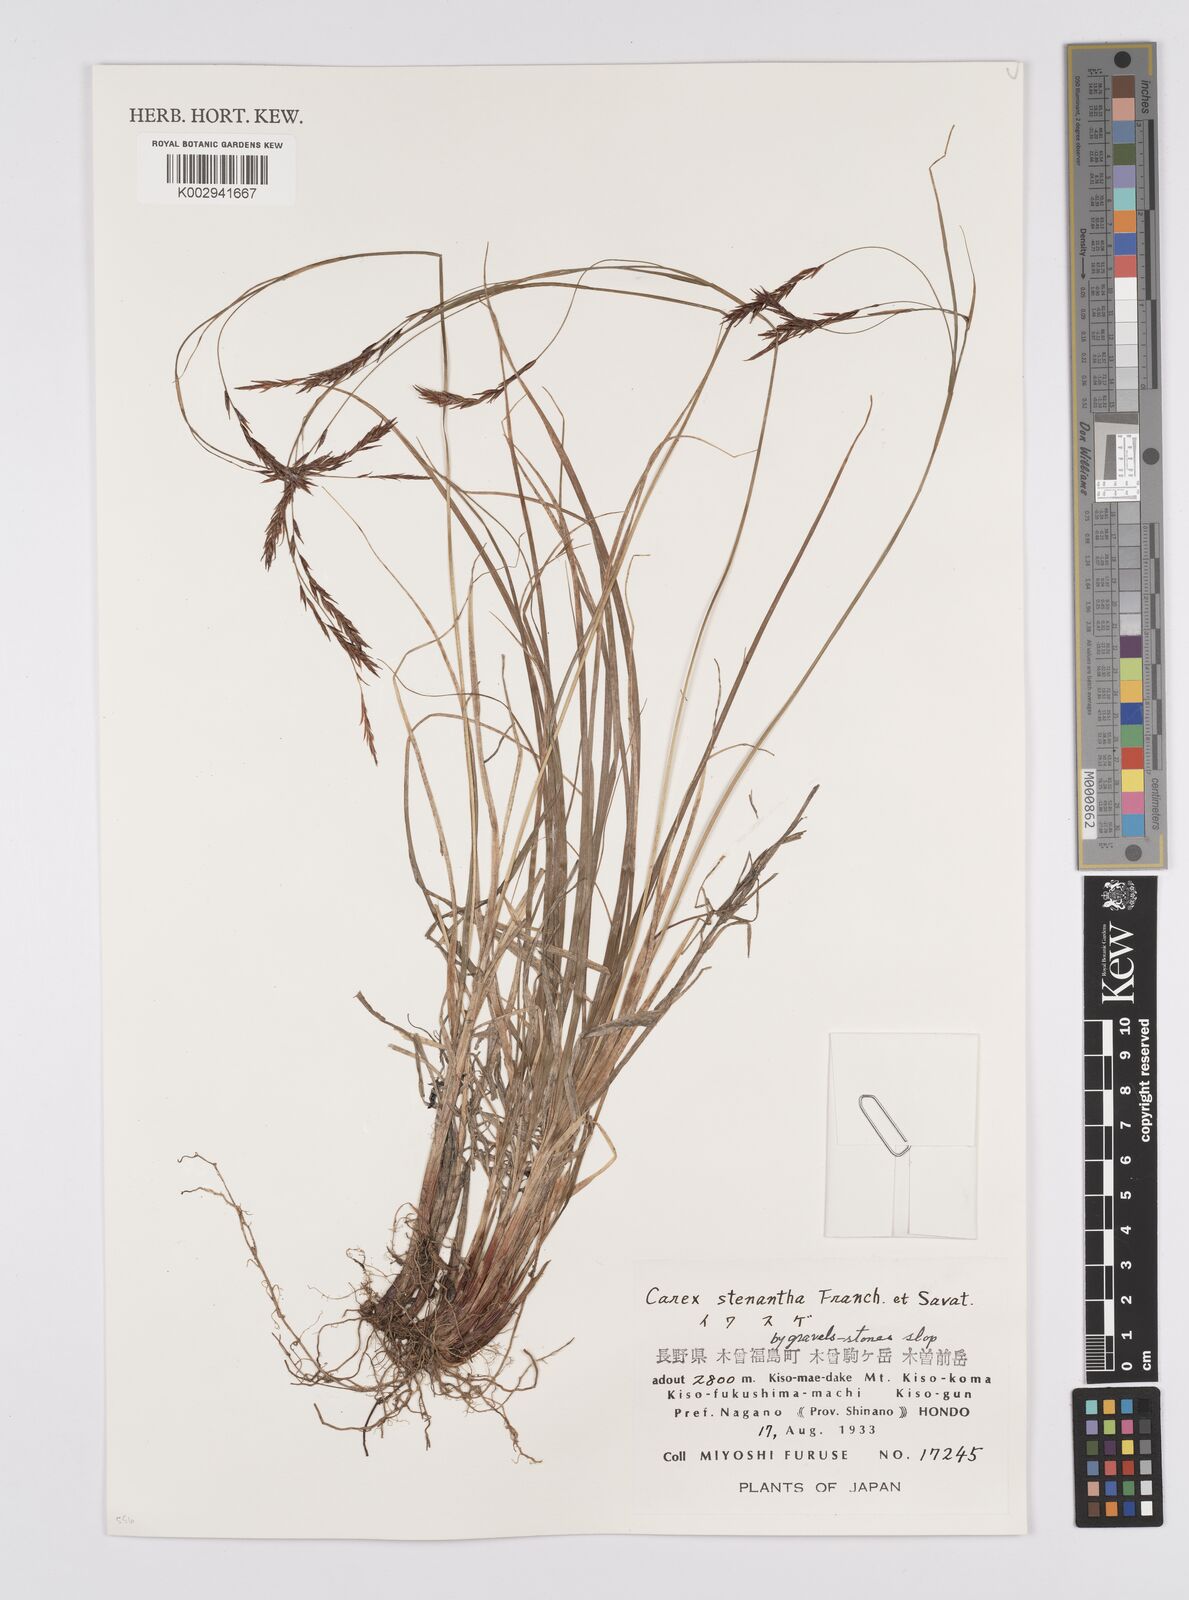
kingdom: Plantae
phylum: Tracheophyta
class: Liliopsida
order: Poales
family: Cyperaceae
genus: Carex
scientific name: Carex stenantha
